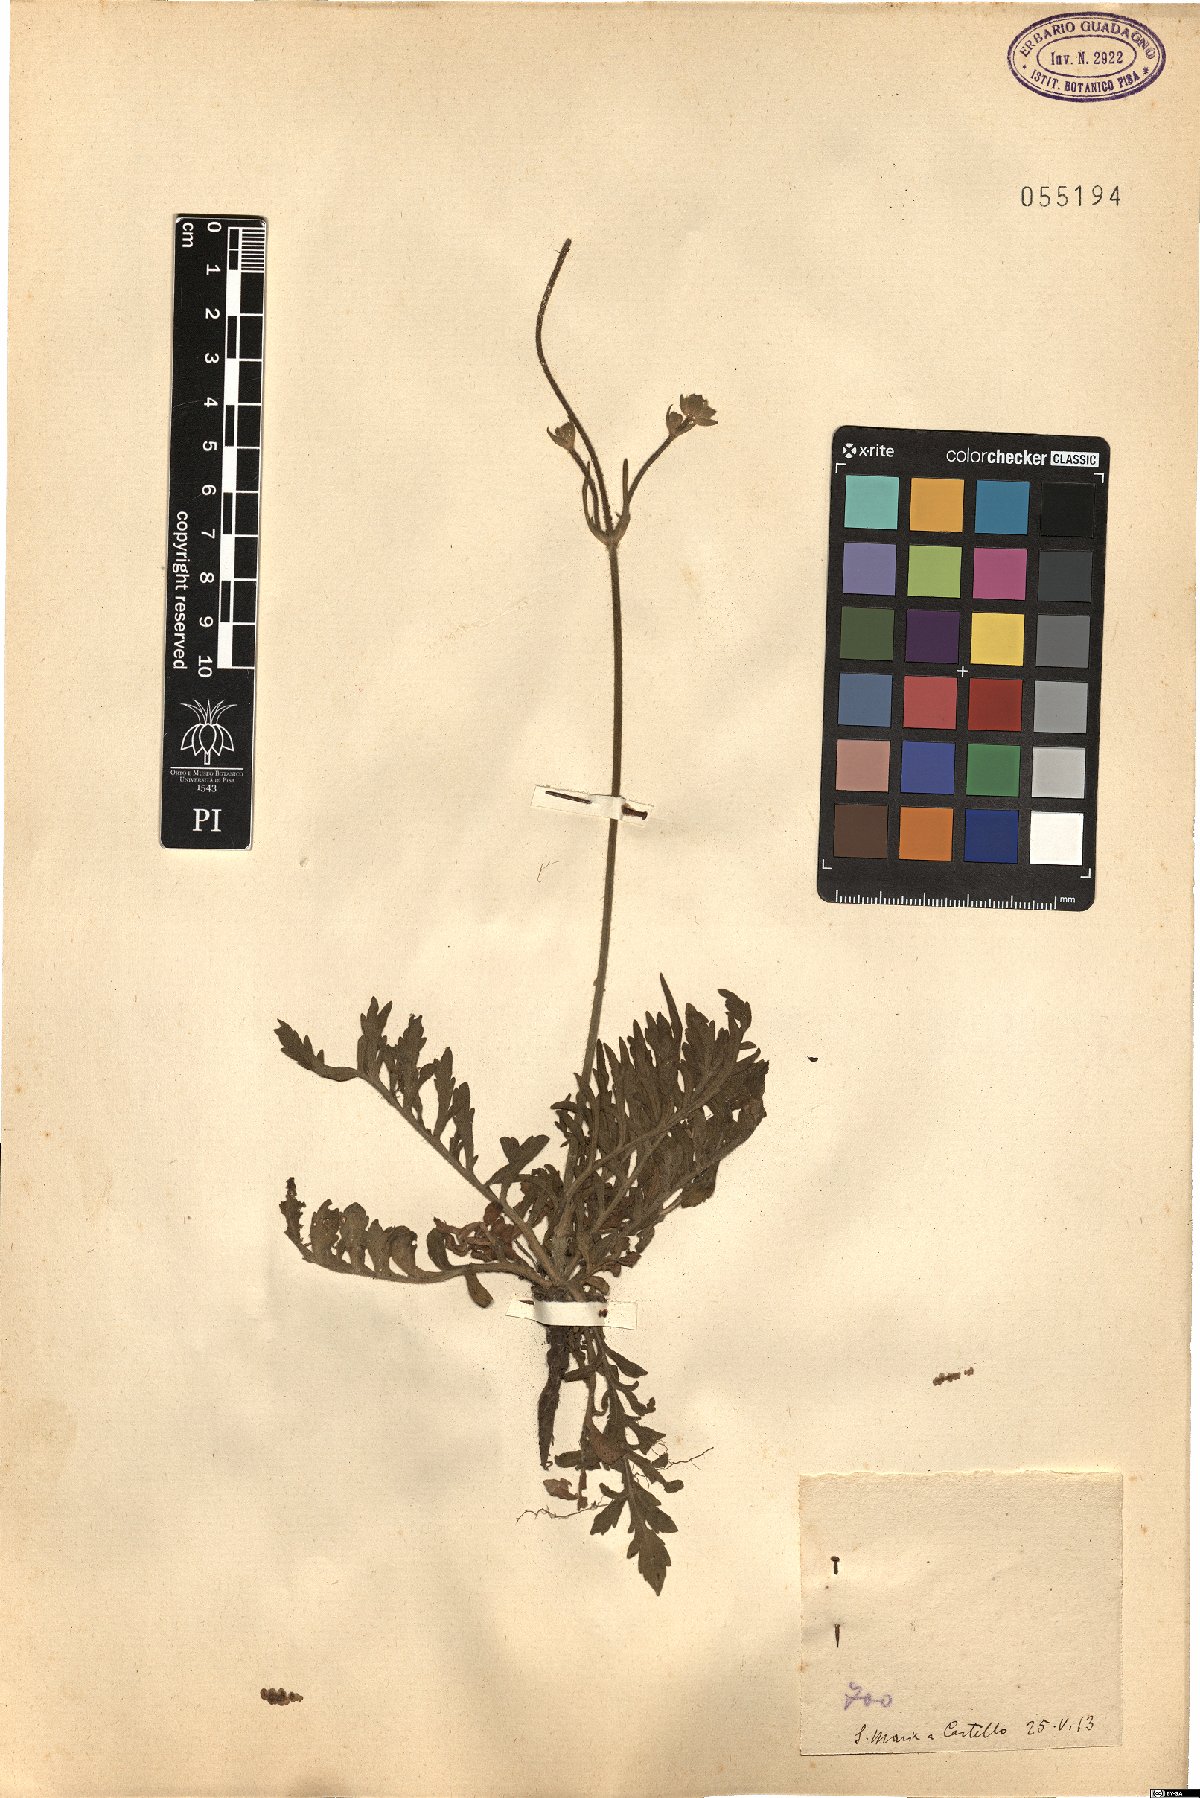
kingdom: Plantae
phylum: Tracheophyta
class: Magnoliopsida
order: Dipsacales
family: Caprifoliaceae
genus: Knautia
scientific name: Knautia
